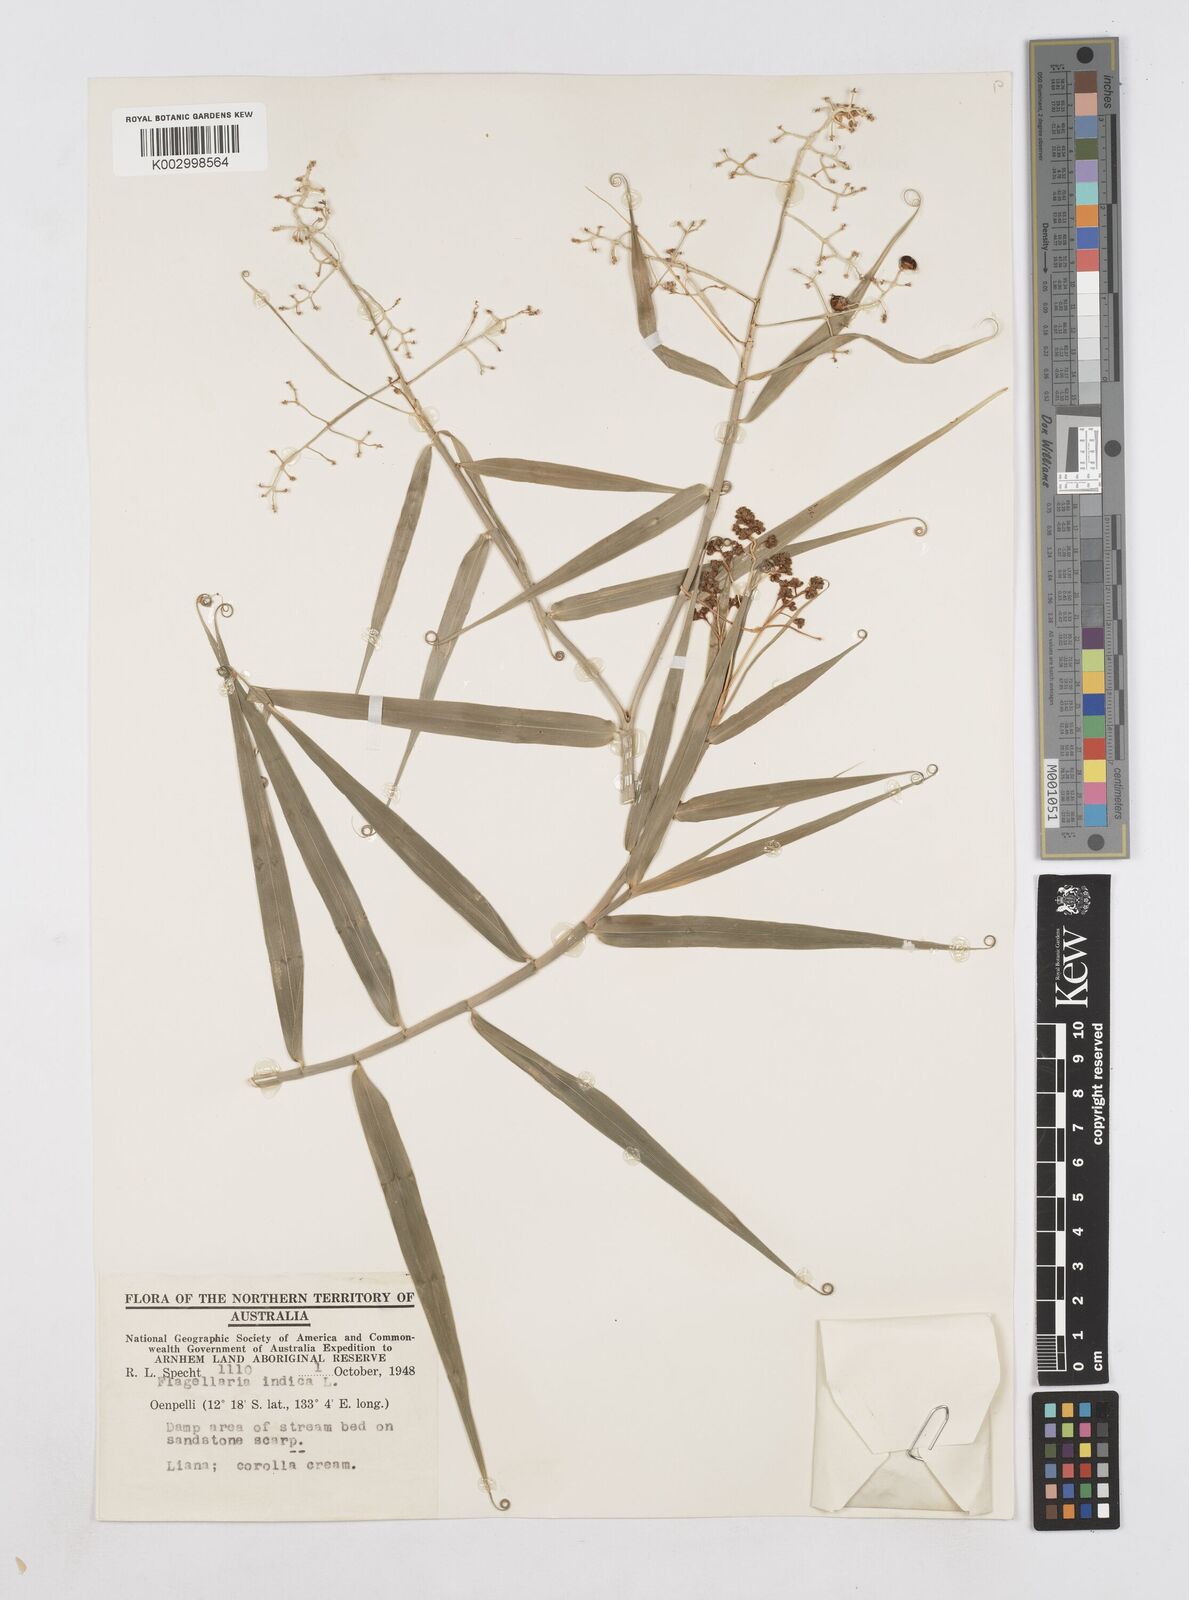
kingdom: Plantae
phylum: Tracheophyta
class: Liliopsida
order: Poales
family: Flagellariaceae
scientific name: Flagellariaceae
